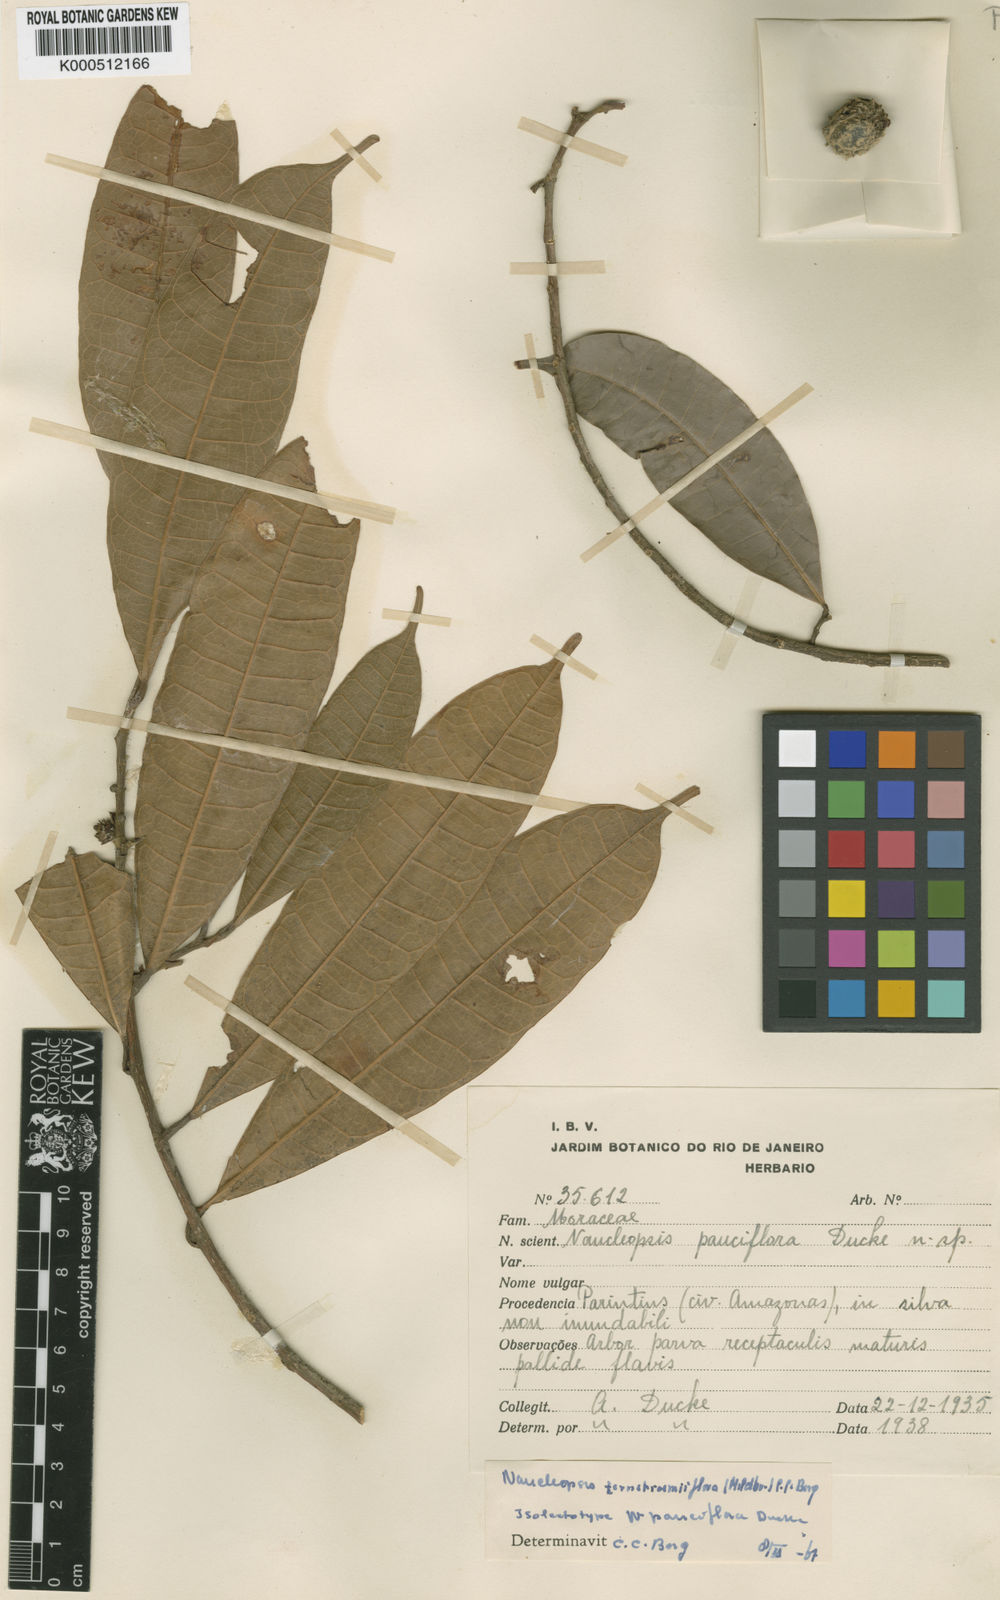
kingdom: Plantae
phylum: Tracheophyta
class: Magnoliopsida
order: Rosales
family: Moraceae
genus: Naucleopsis
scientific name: Naucleopsis ternstroemiiflora
